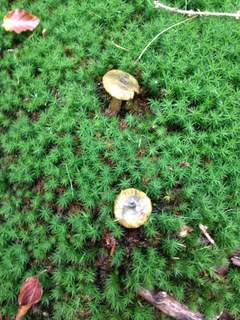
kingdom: Fungi
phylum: Basidiomycota
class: Agaricomycetes
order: Russulales
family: Russulaceae
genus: Lactarius
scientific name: Lactarius necator
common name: manddraber-mælkehat
